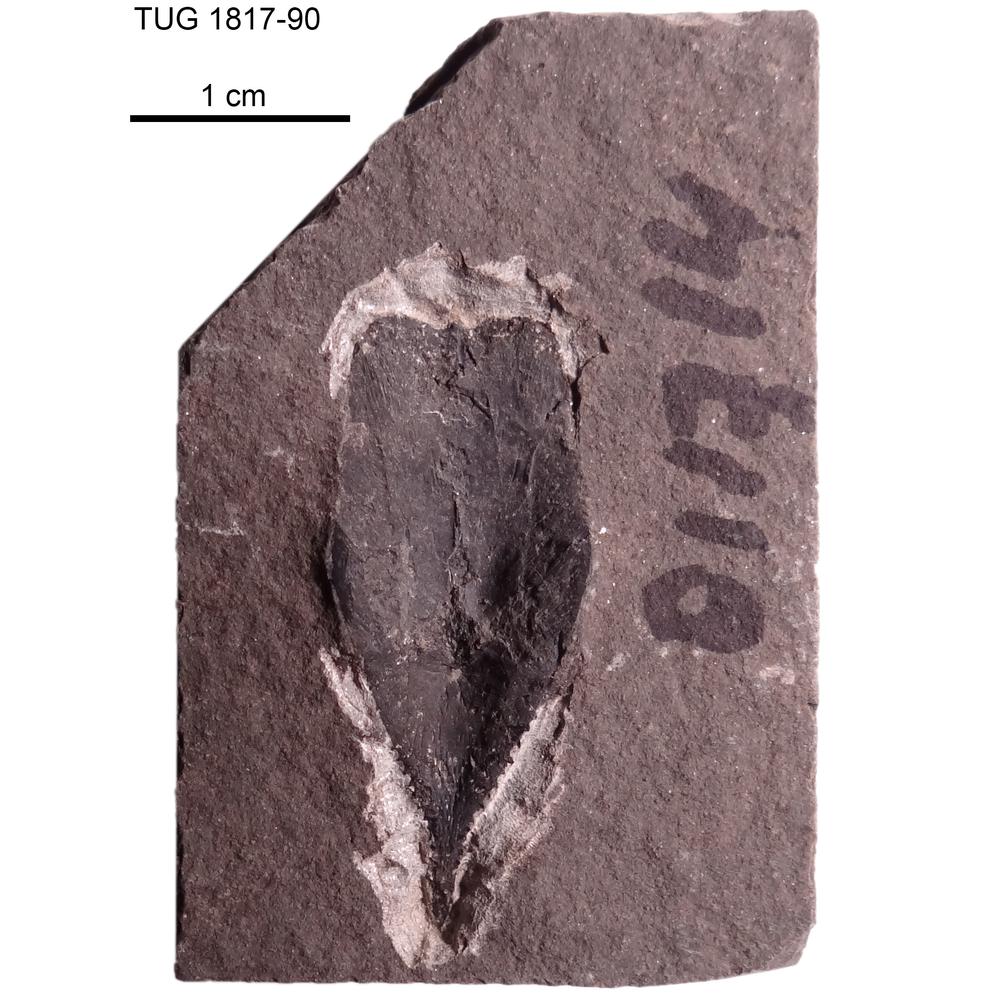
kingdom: Animalia
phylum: Chordata
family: Coccosteidae
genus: Millerosteus
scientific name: Millerosteus minor
